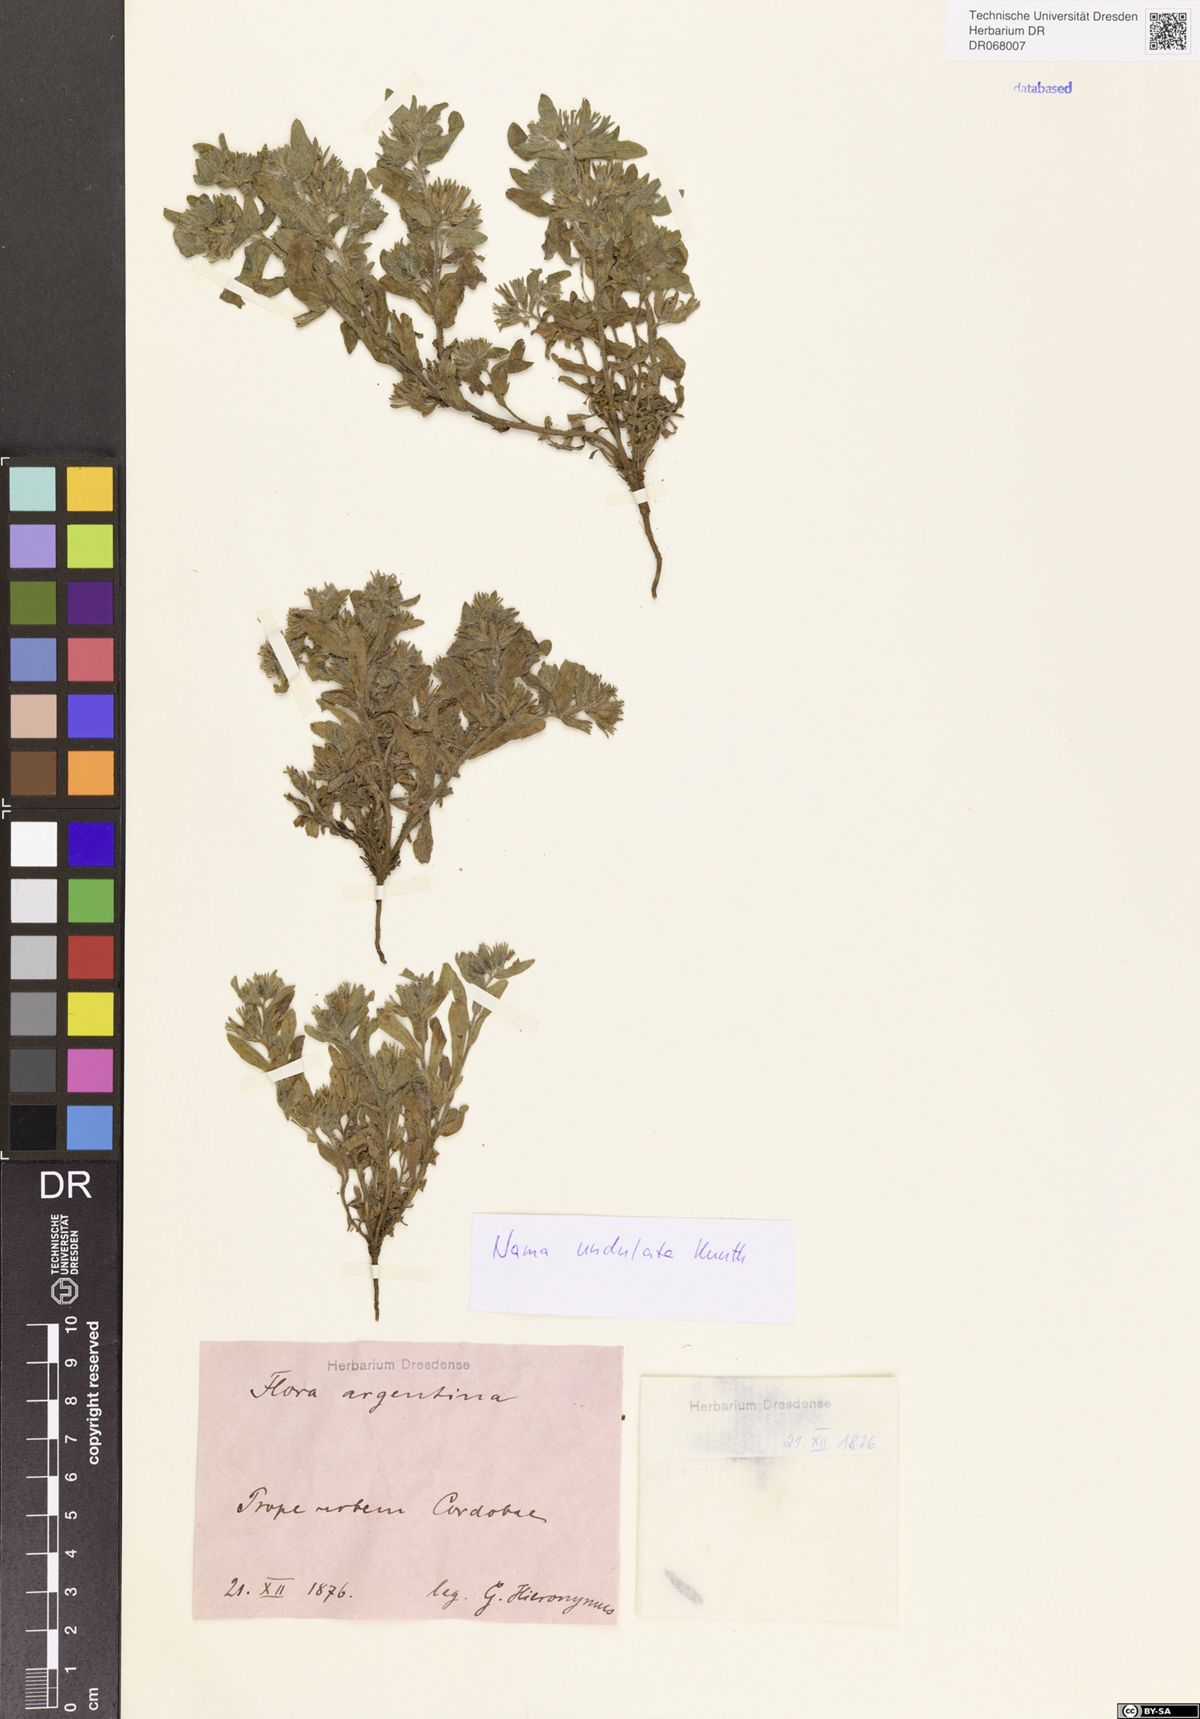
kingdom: Plantae
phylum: Tracheophyta
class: Magnoliopsida
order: Boraginales
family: Namaceae
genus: Nama
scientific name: Nama undulata
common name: Whitewhisker fiddleleaf
